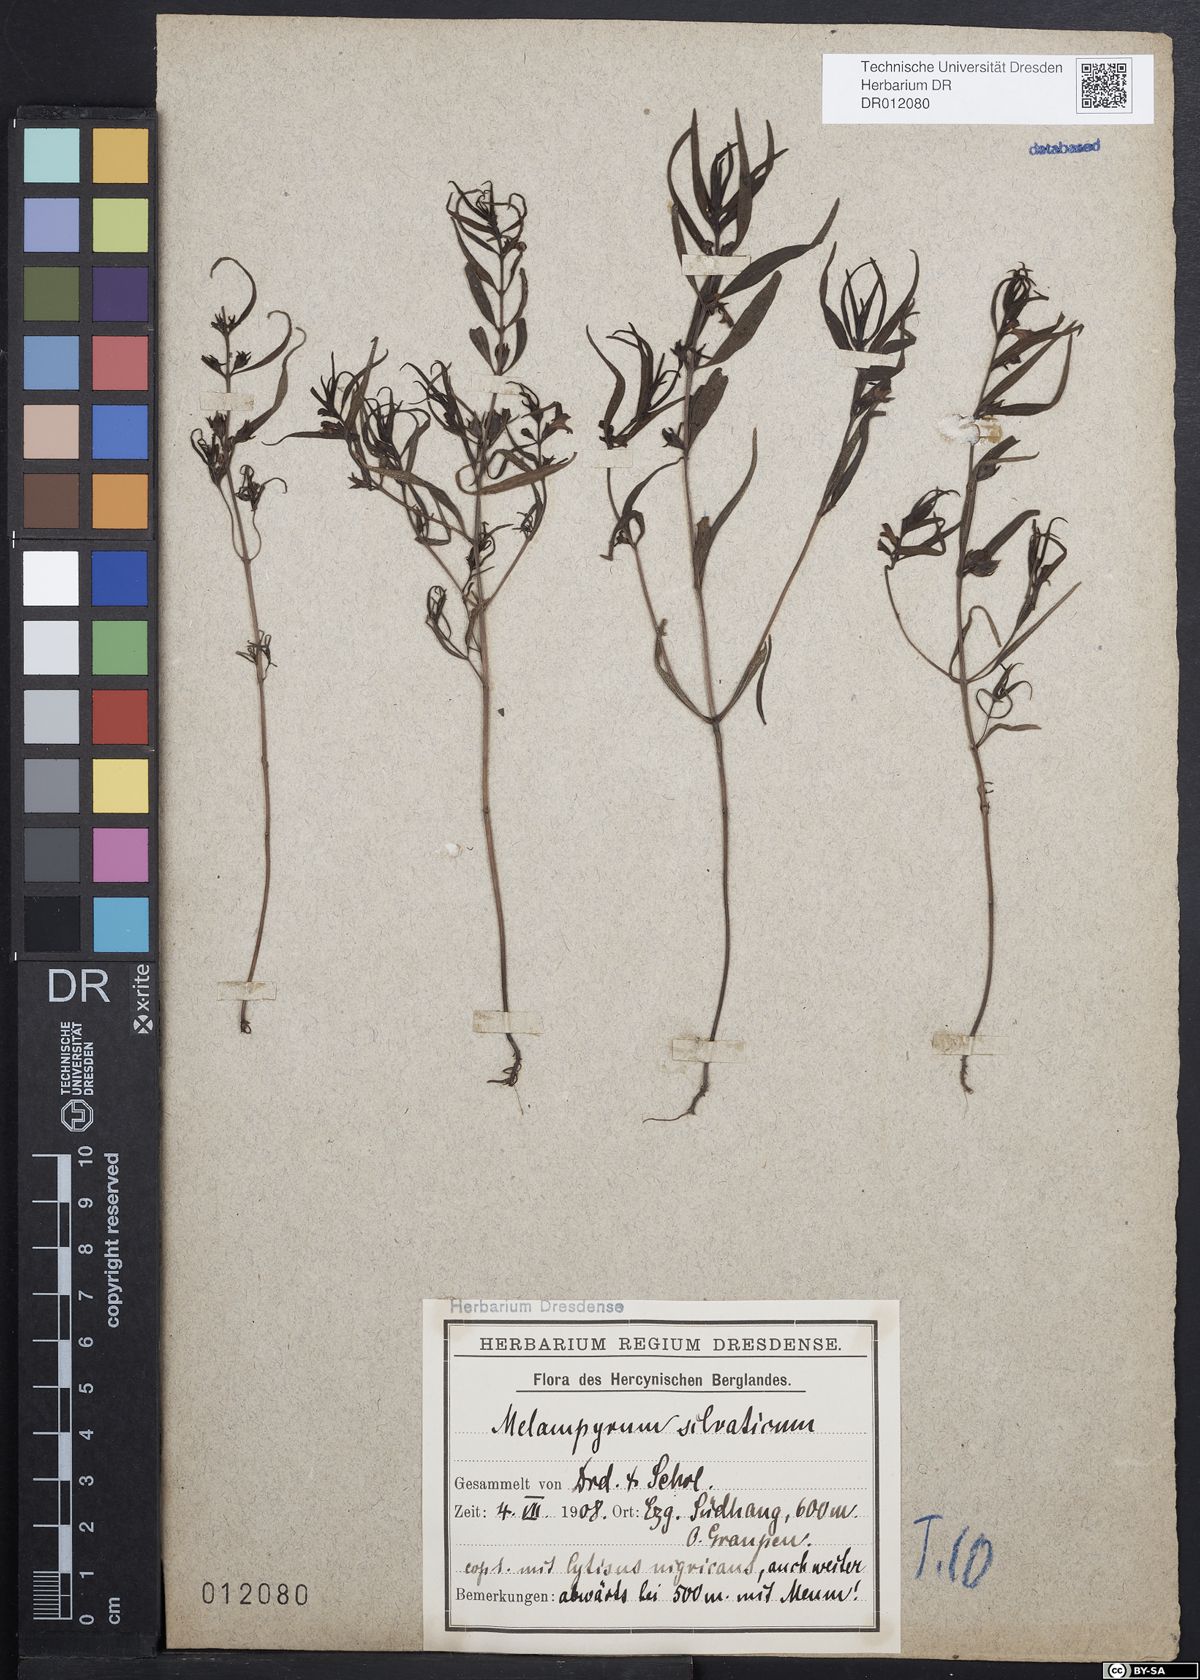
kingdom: Plantae
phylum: Tracheophyta
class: Magnoliopsida
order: Lamiales
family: Orobanchaceae
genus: Melampyrum
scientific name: Melampyrum sylvaticum
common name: Small cow-wheat
